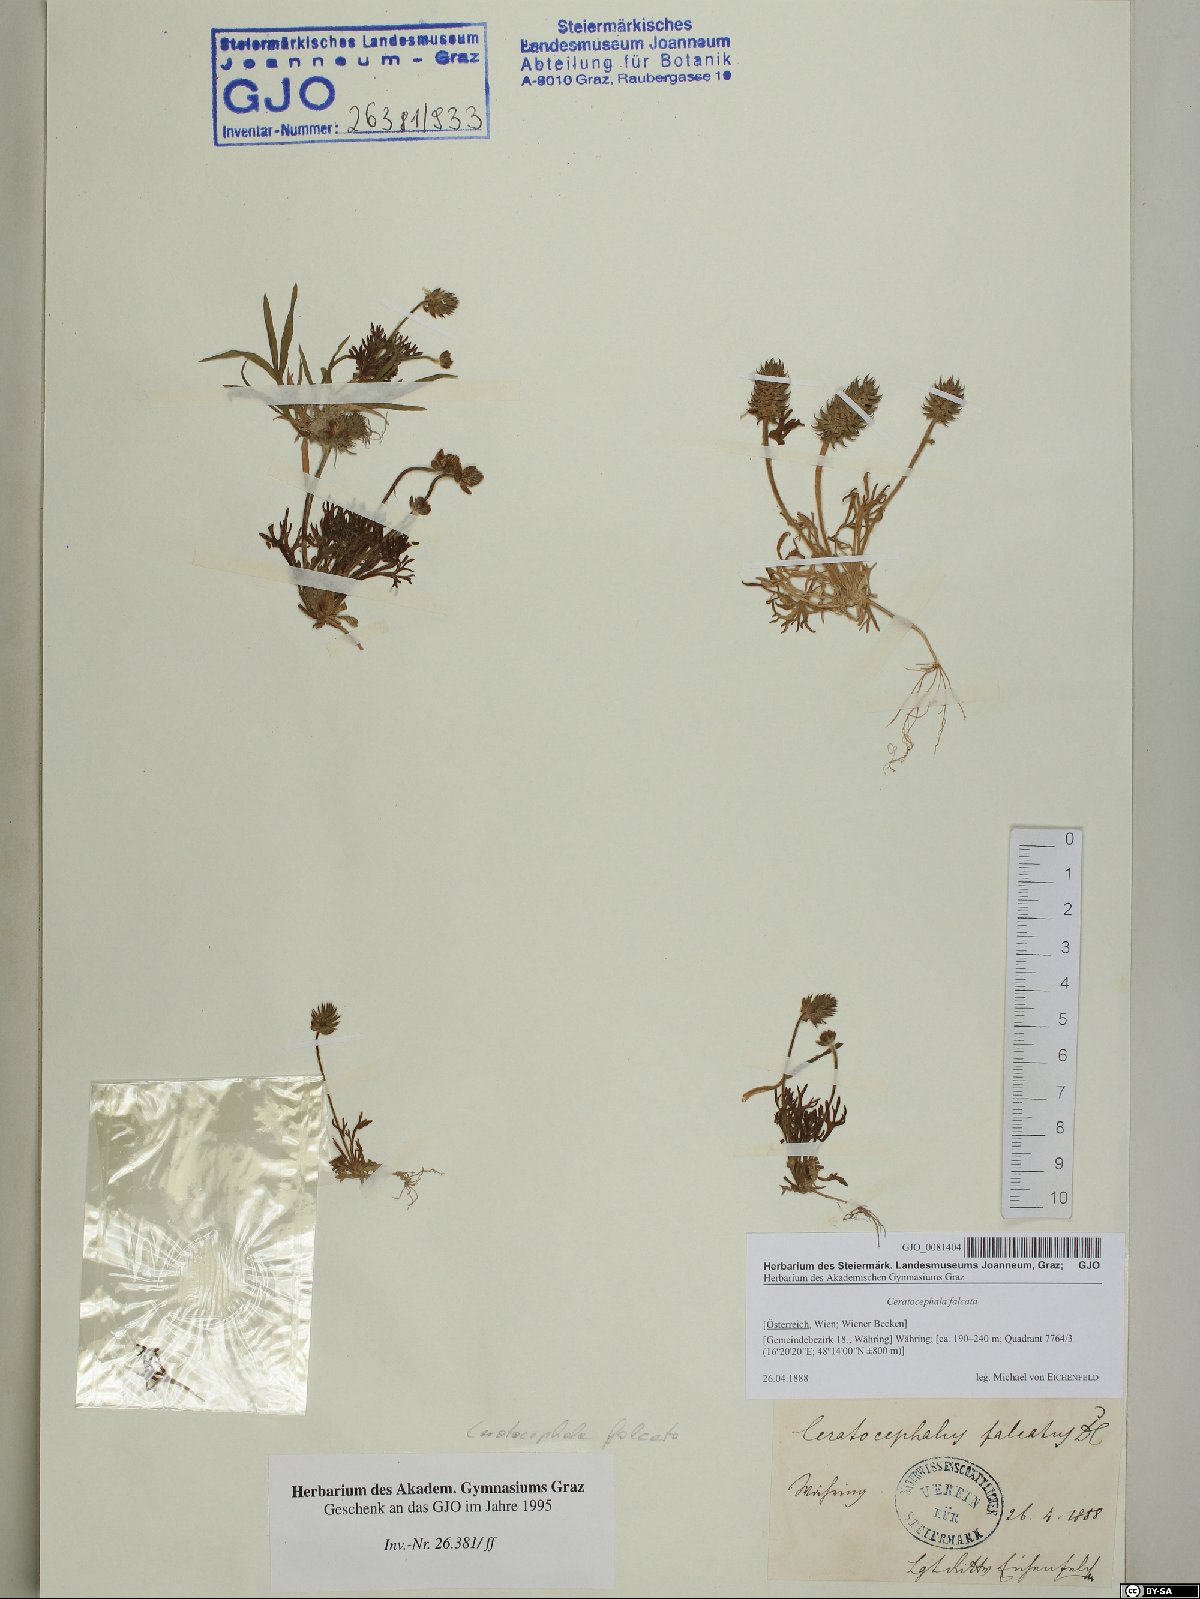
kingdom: Plantae
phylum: Tracheophyta
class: Magnoliopsida
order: Ranunculales
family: Ranunculaceae
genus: Ceratocephala
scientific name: Ceratocephala falcata
